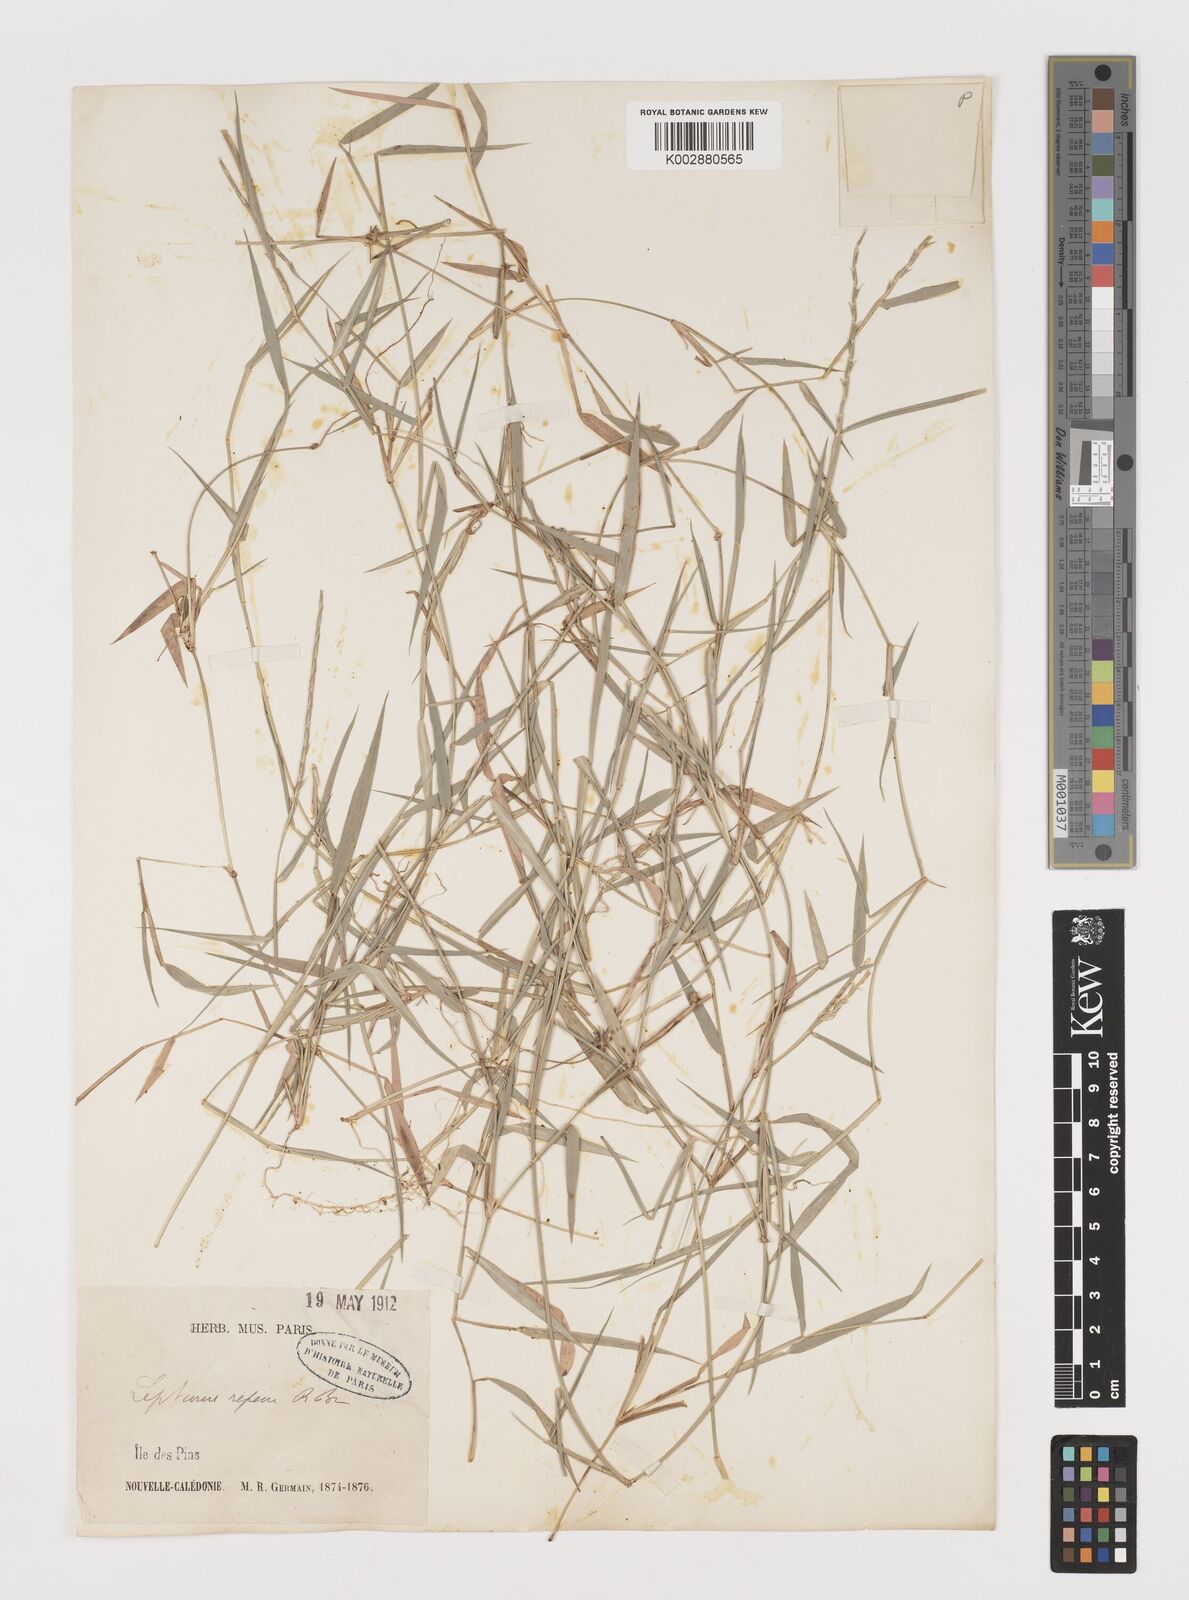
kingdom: Plantae
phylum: Tracheophyta
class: Liliopsida
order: Poales
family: Poaceae
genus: Lepturus
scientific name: Lepturus repens
